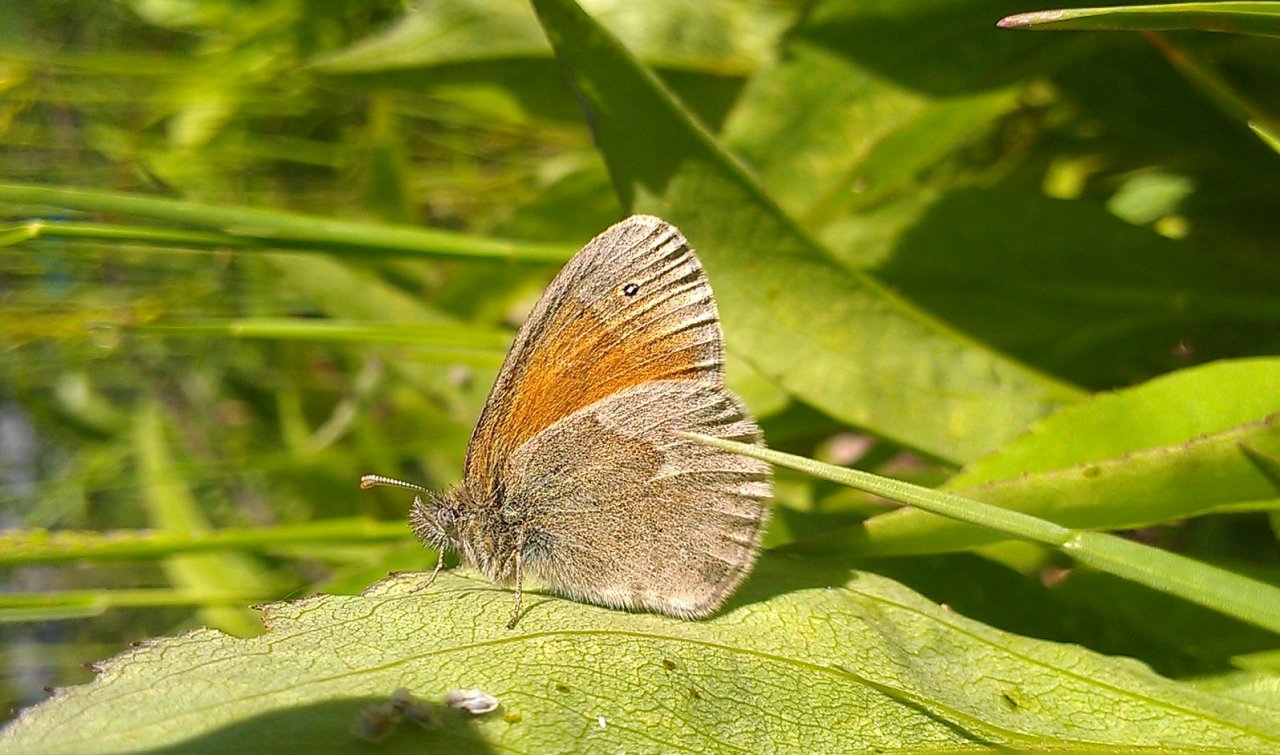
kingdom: Animalia
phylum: Arthropoda
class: Insecta
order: Lepidoptera
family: Nymphalidae
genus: Coenonympha
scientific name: Coenonympha tullia
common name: Large Heath
